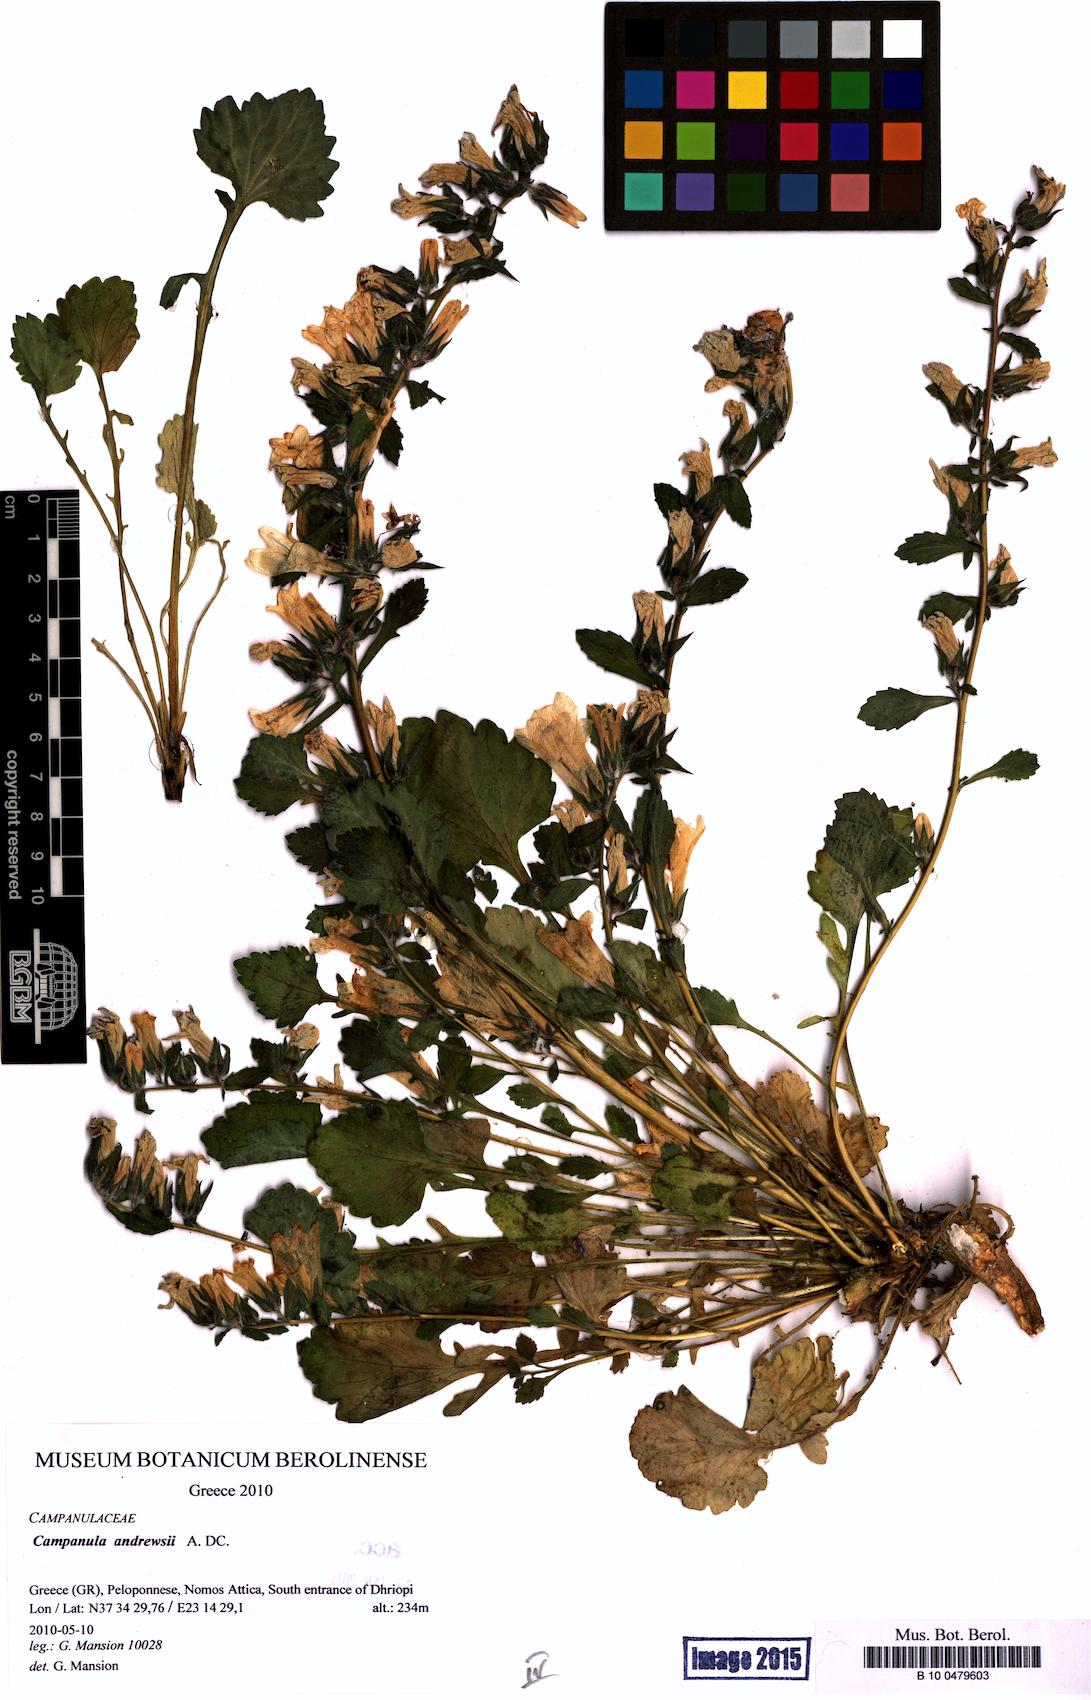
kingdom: Plantae
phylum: Tracheophyta
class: Magnoliopsida
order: Asterales
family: Campanulaceae
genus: Campanula
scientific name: Campanula andrewsii
